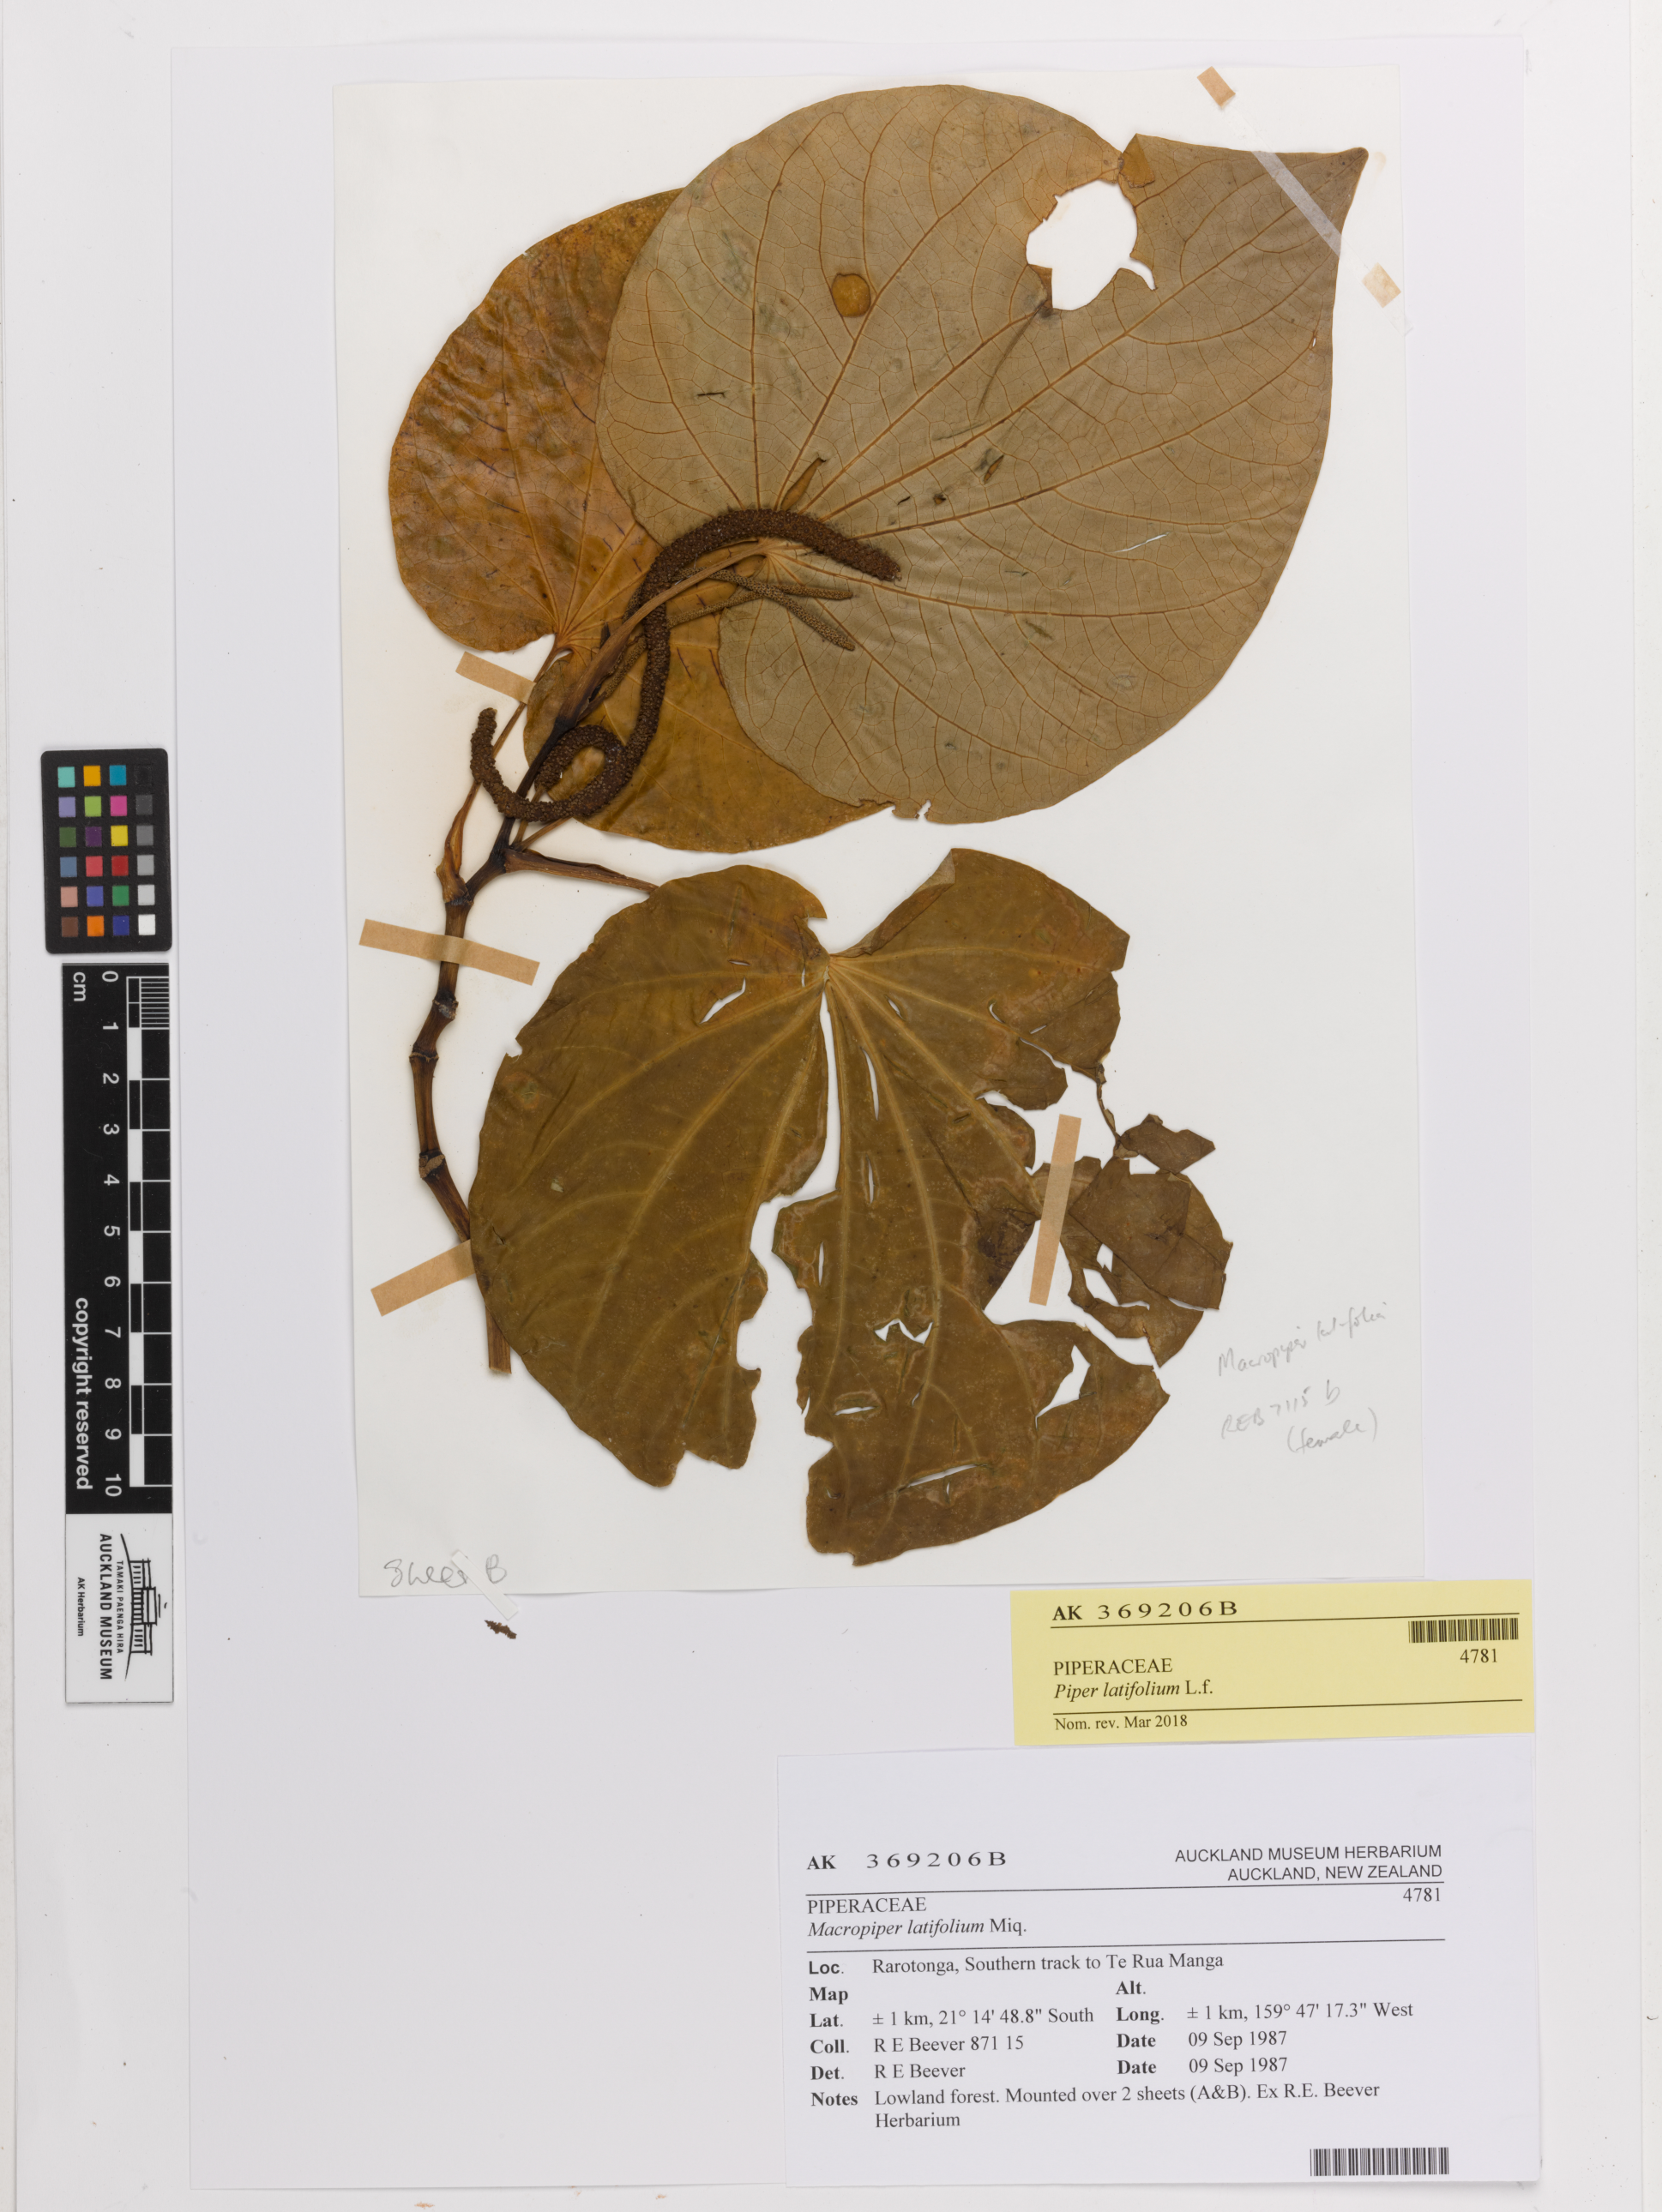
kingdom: Plantae
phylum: Tracheophyta
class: Magnoliopsida
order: Piperales
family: Piperaceae
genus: Macropiper
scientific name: Macropiper latifolium
